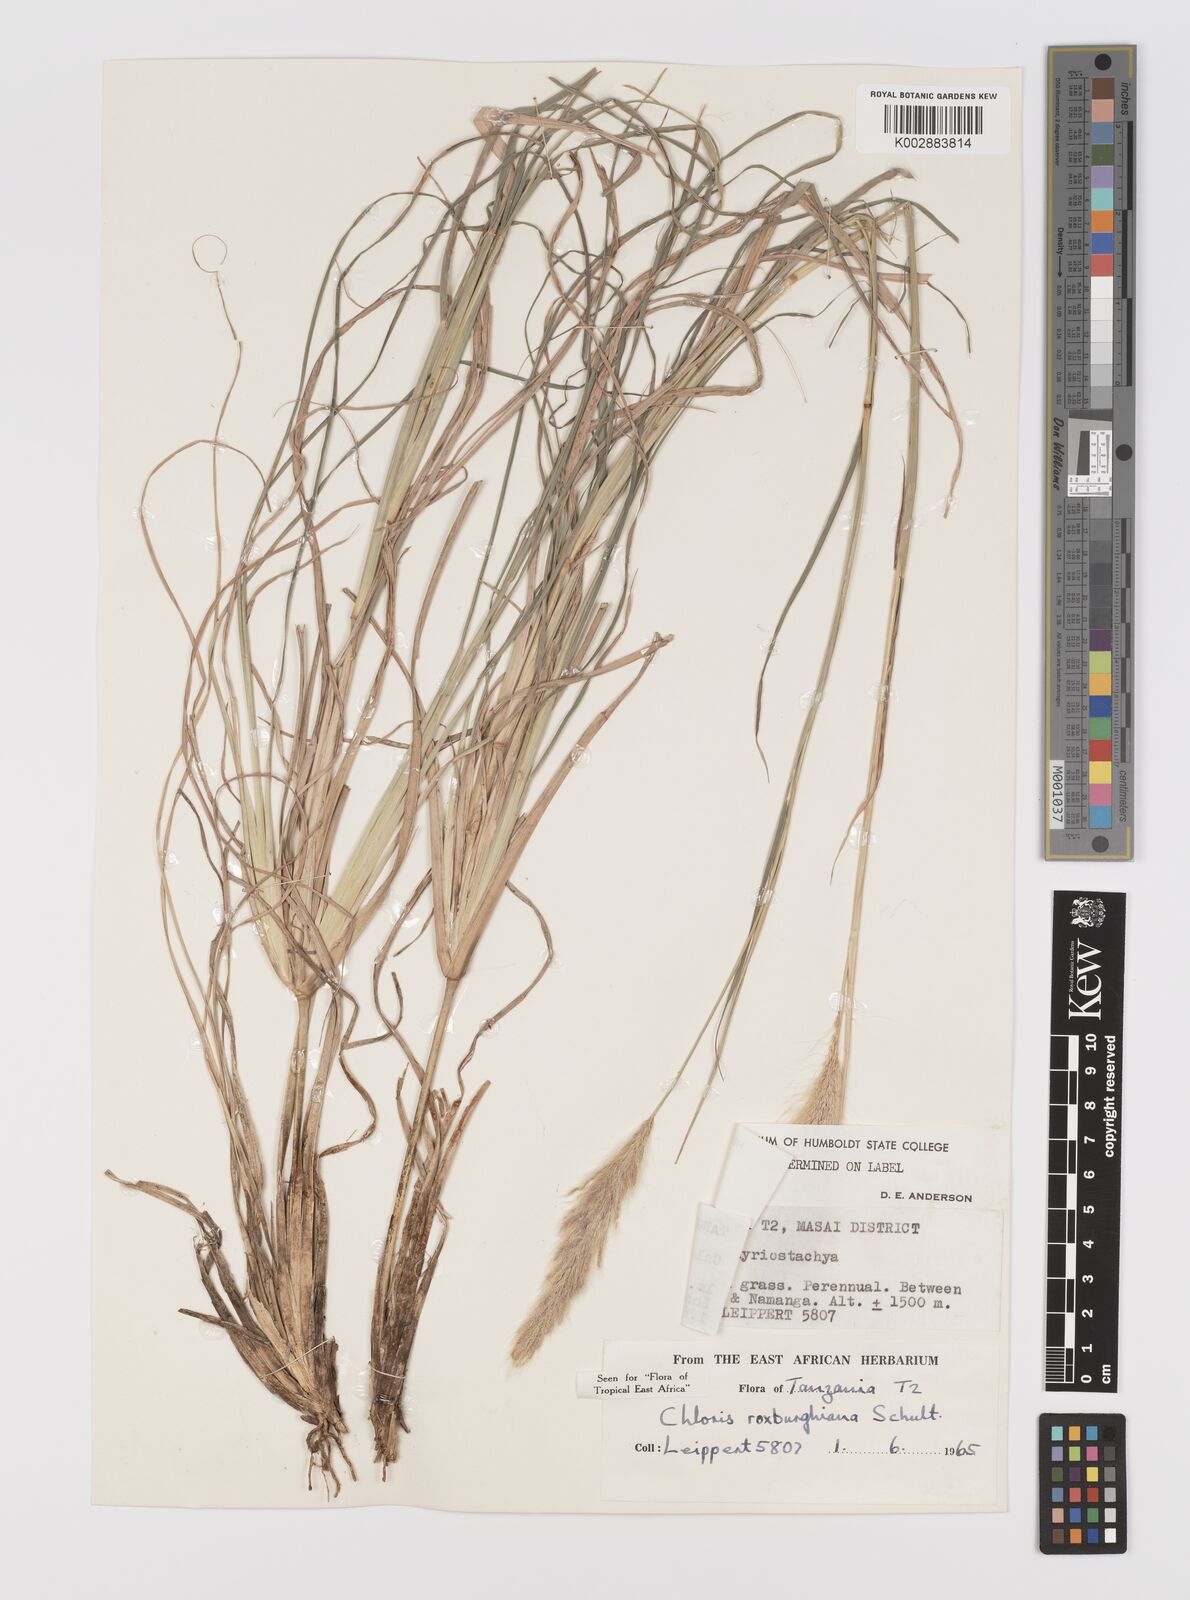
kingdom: Plantae
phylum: Tracheophyta
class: Liliopsida
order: Poales
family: Poaceae
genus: Tetrapogon
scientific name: Tetrapogon roxburghiana
